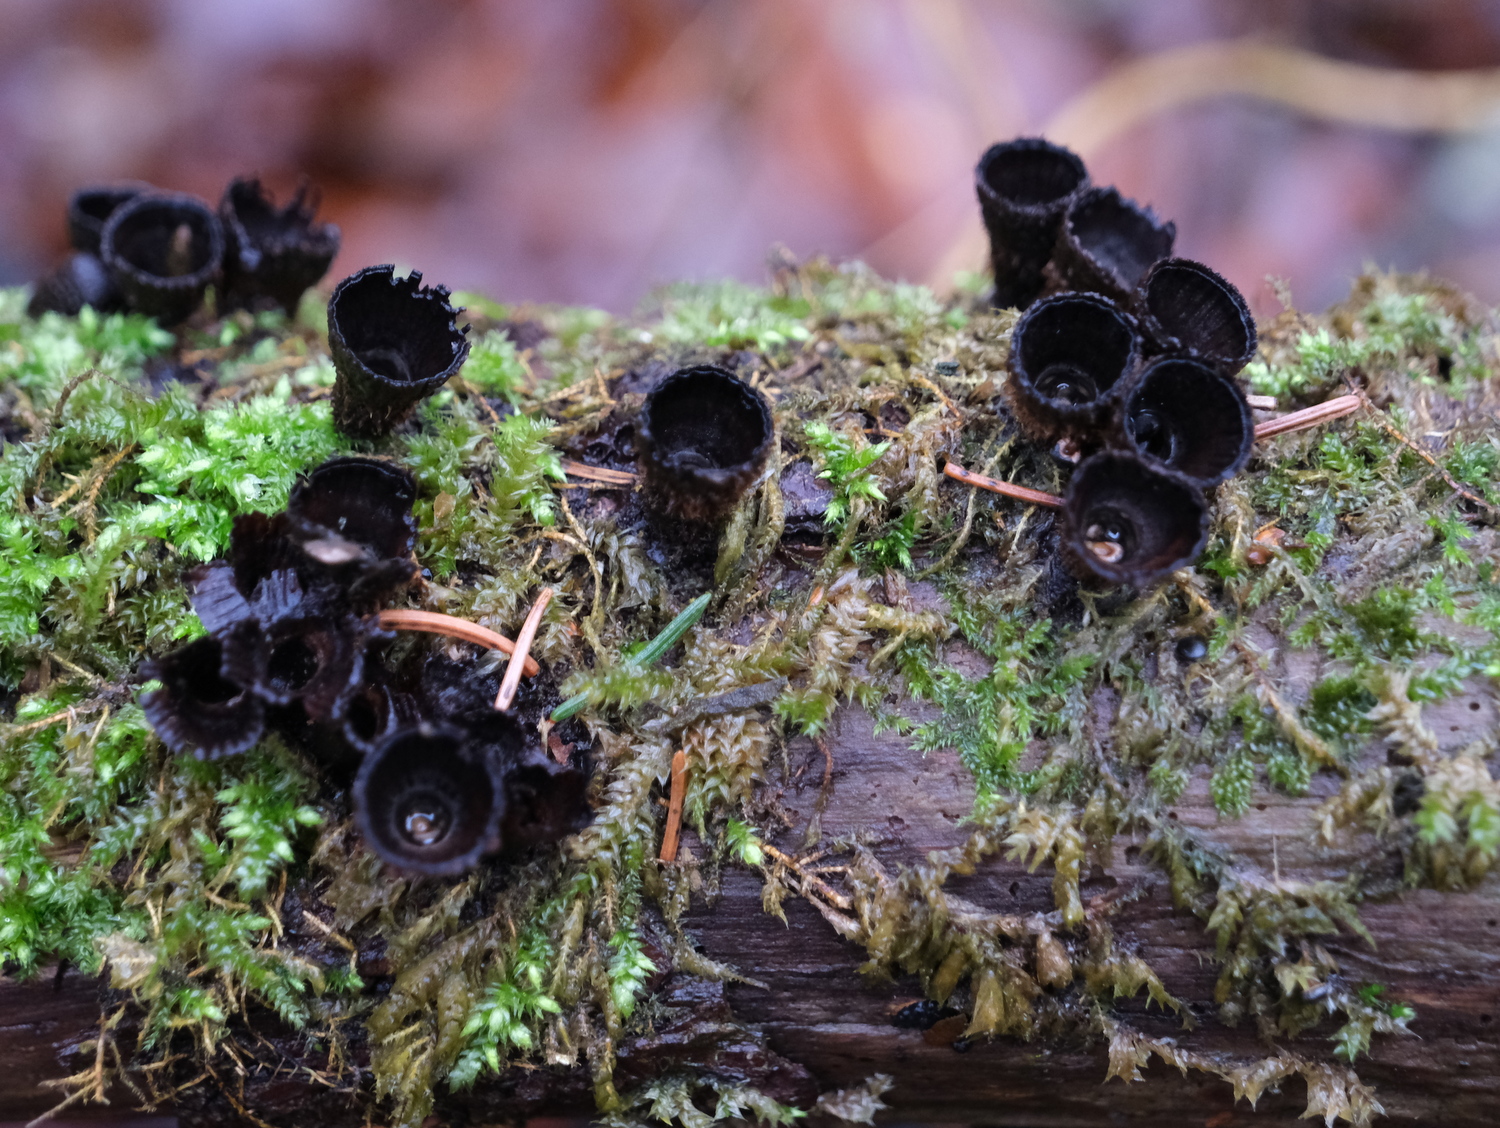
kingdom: Fungi
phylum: Basidiomycota
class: Agaricomycetes
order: Agaricales
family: Agaricaceae
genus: Cyathus
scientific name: Cyathus striatus
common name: stribet redesvamp
